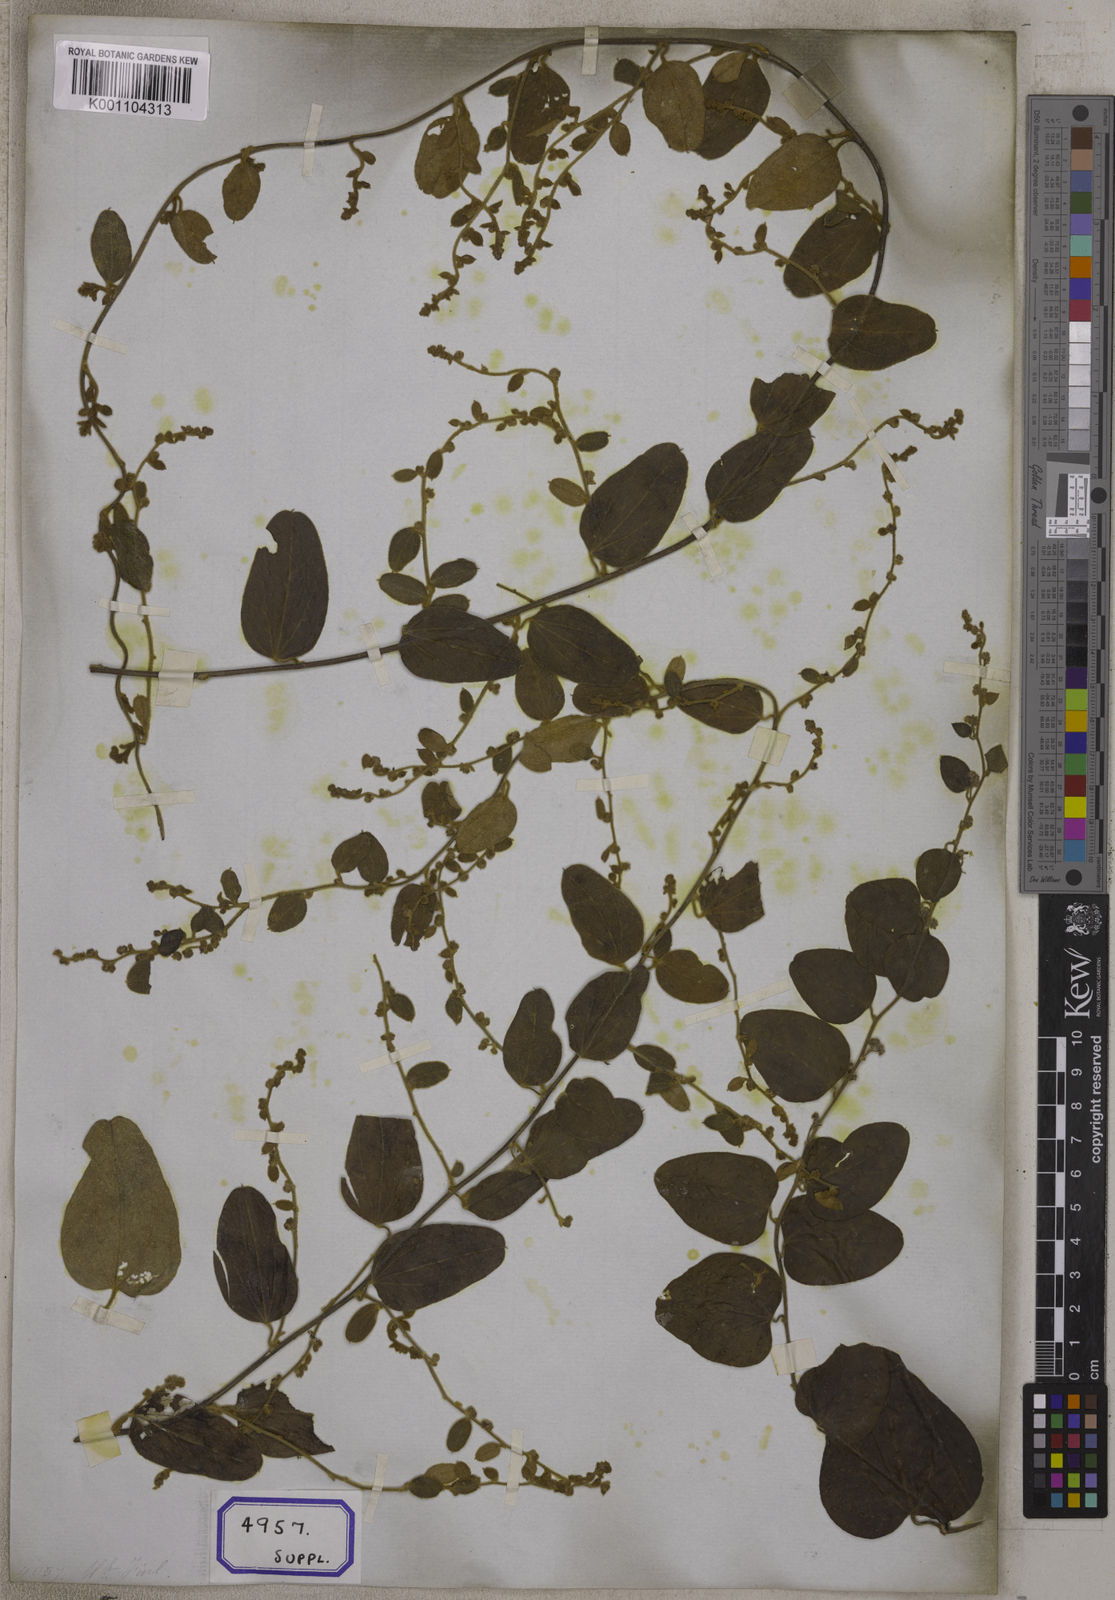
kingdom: Plantae
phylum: Tracheophyta
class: Magnoliopsida
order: Ranunculales
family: Menispermaceae
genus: Cocculus
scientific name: Cocculus hirsutus
